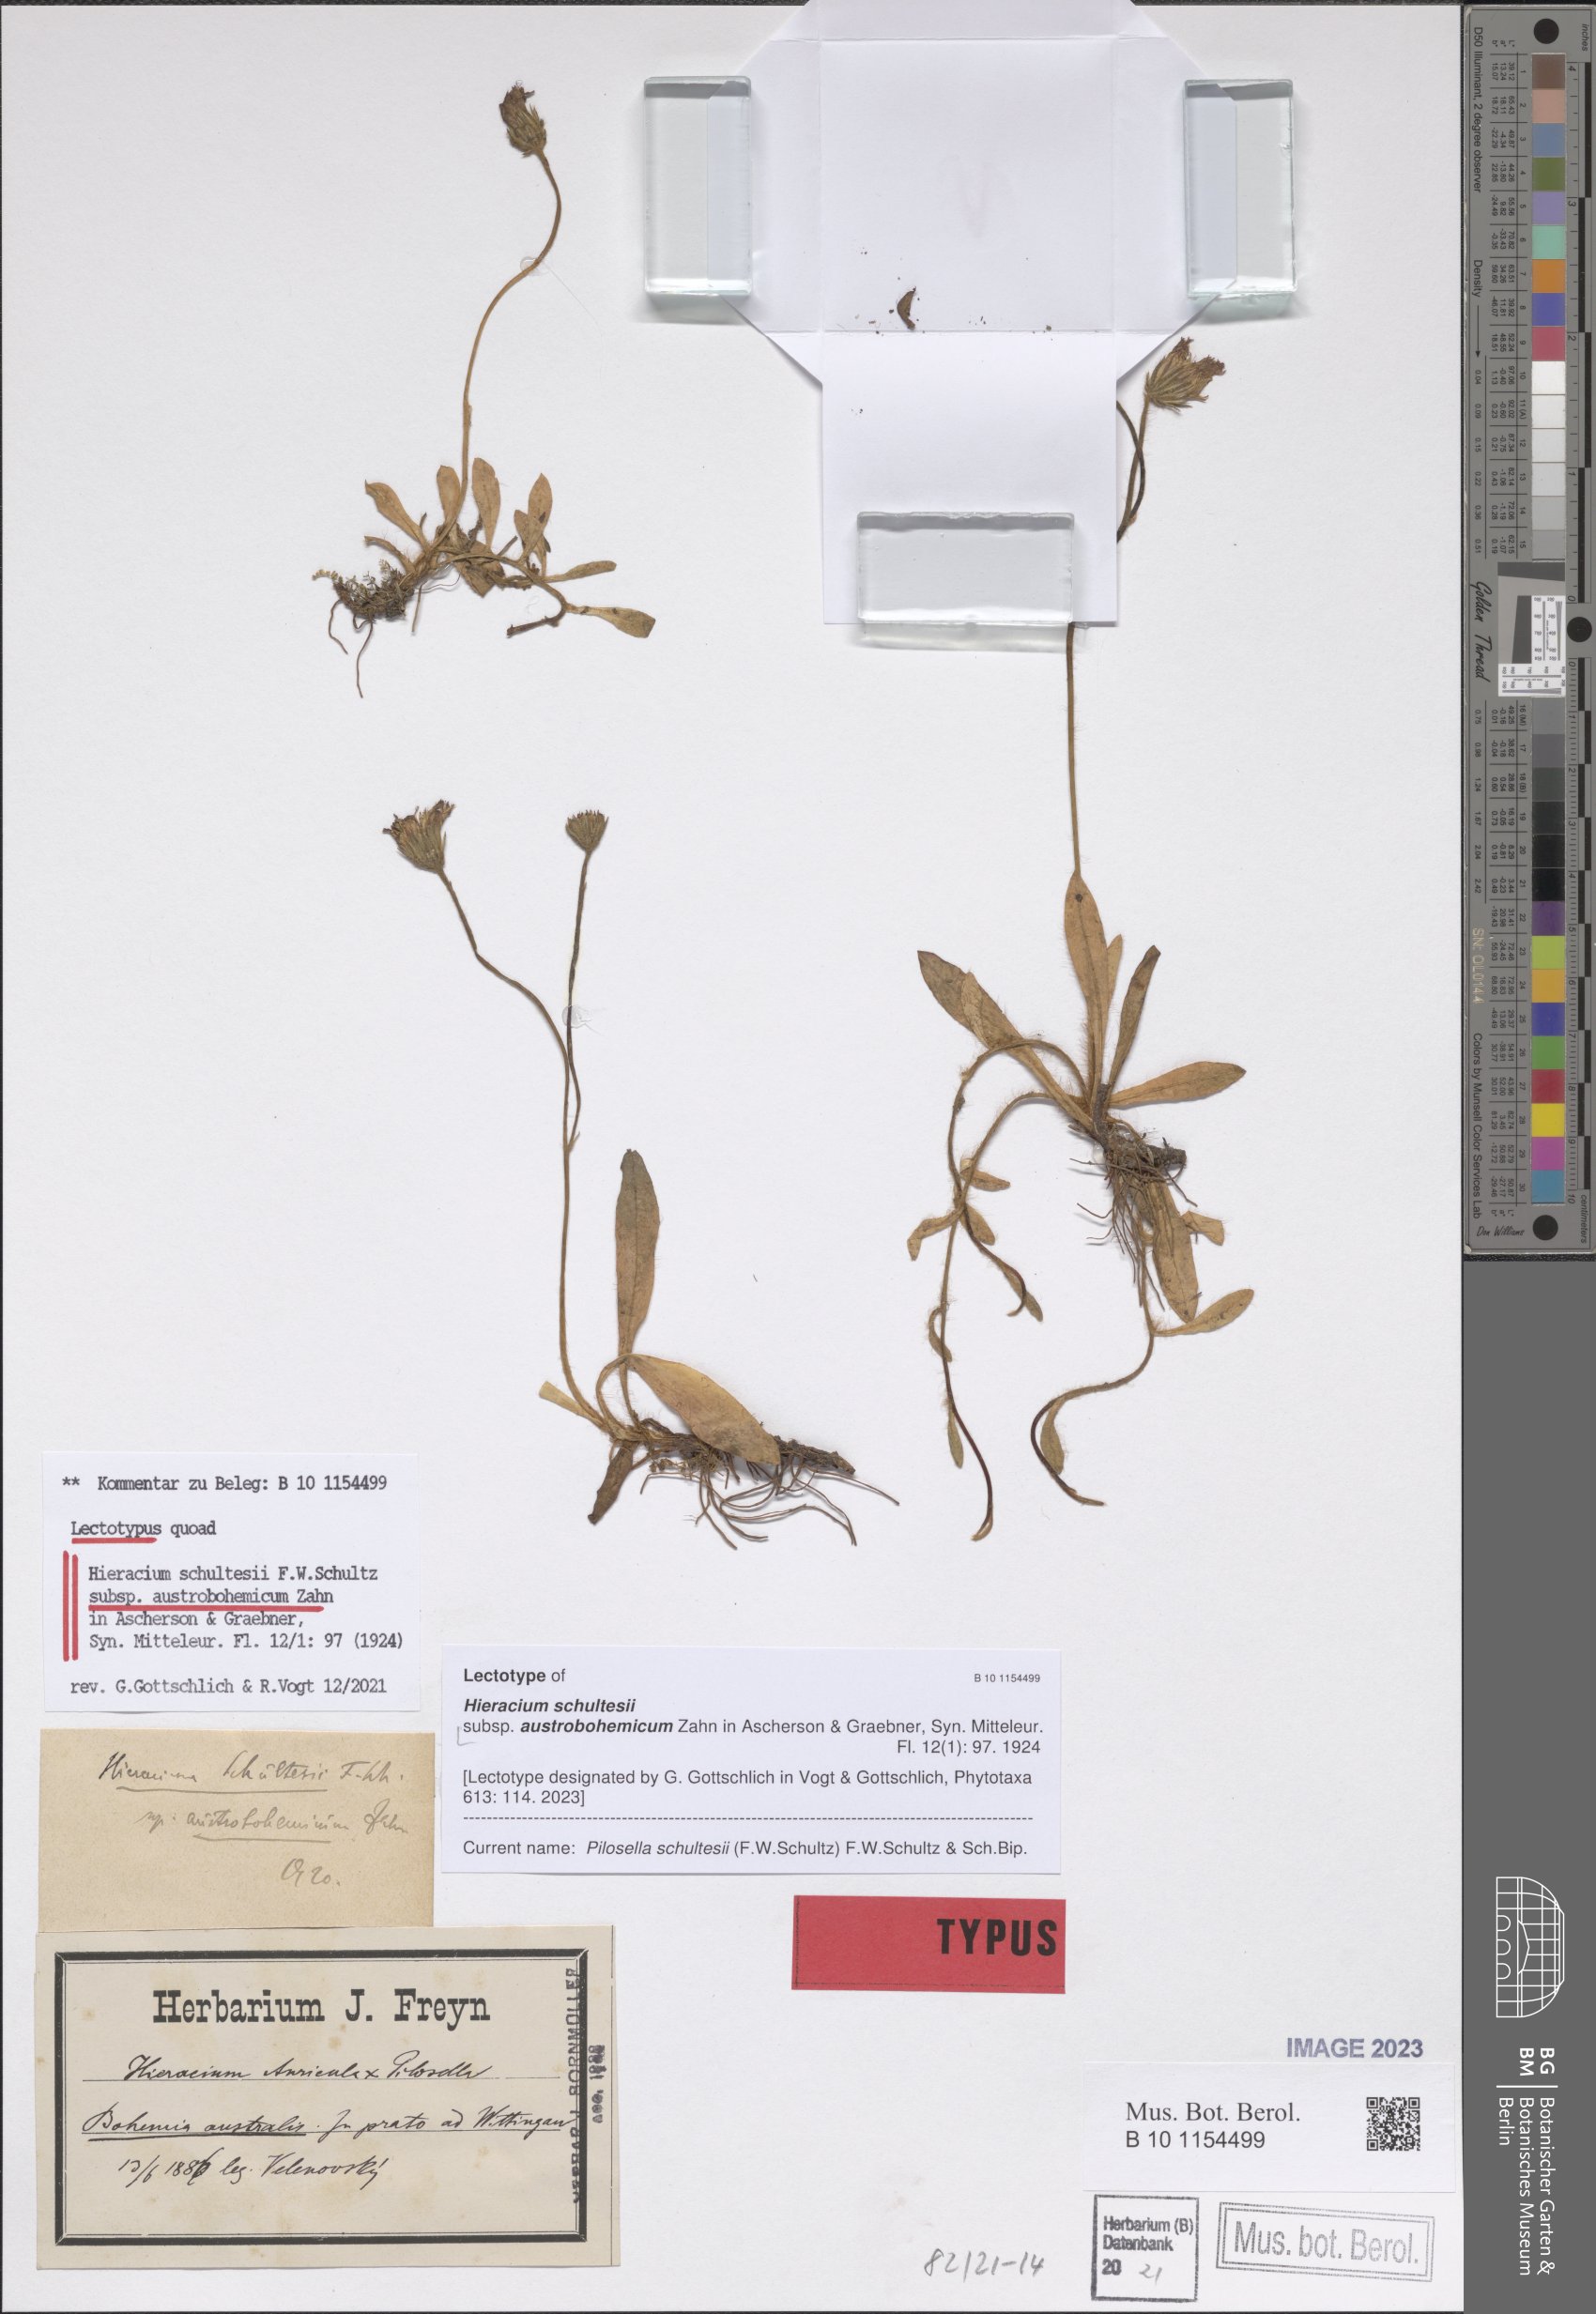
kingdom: Plantae
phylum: Tracheophyta
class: Magnoliopsida
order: Asterales
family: Asteraceae
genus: Pilosella
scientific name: Pilosella schultesii
